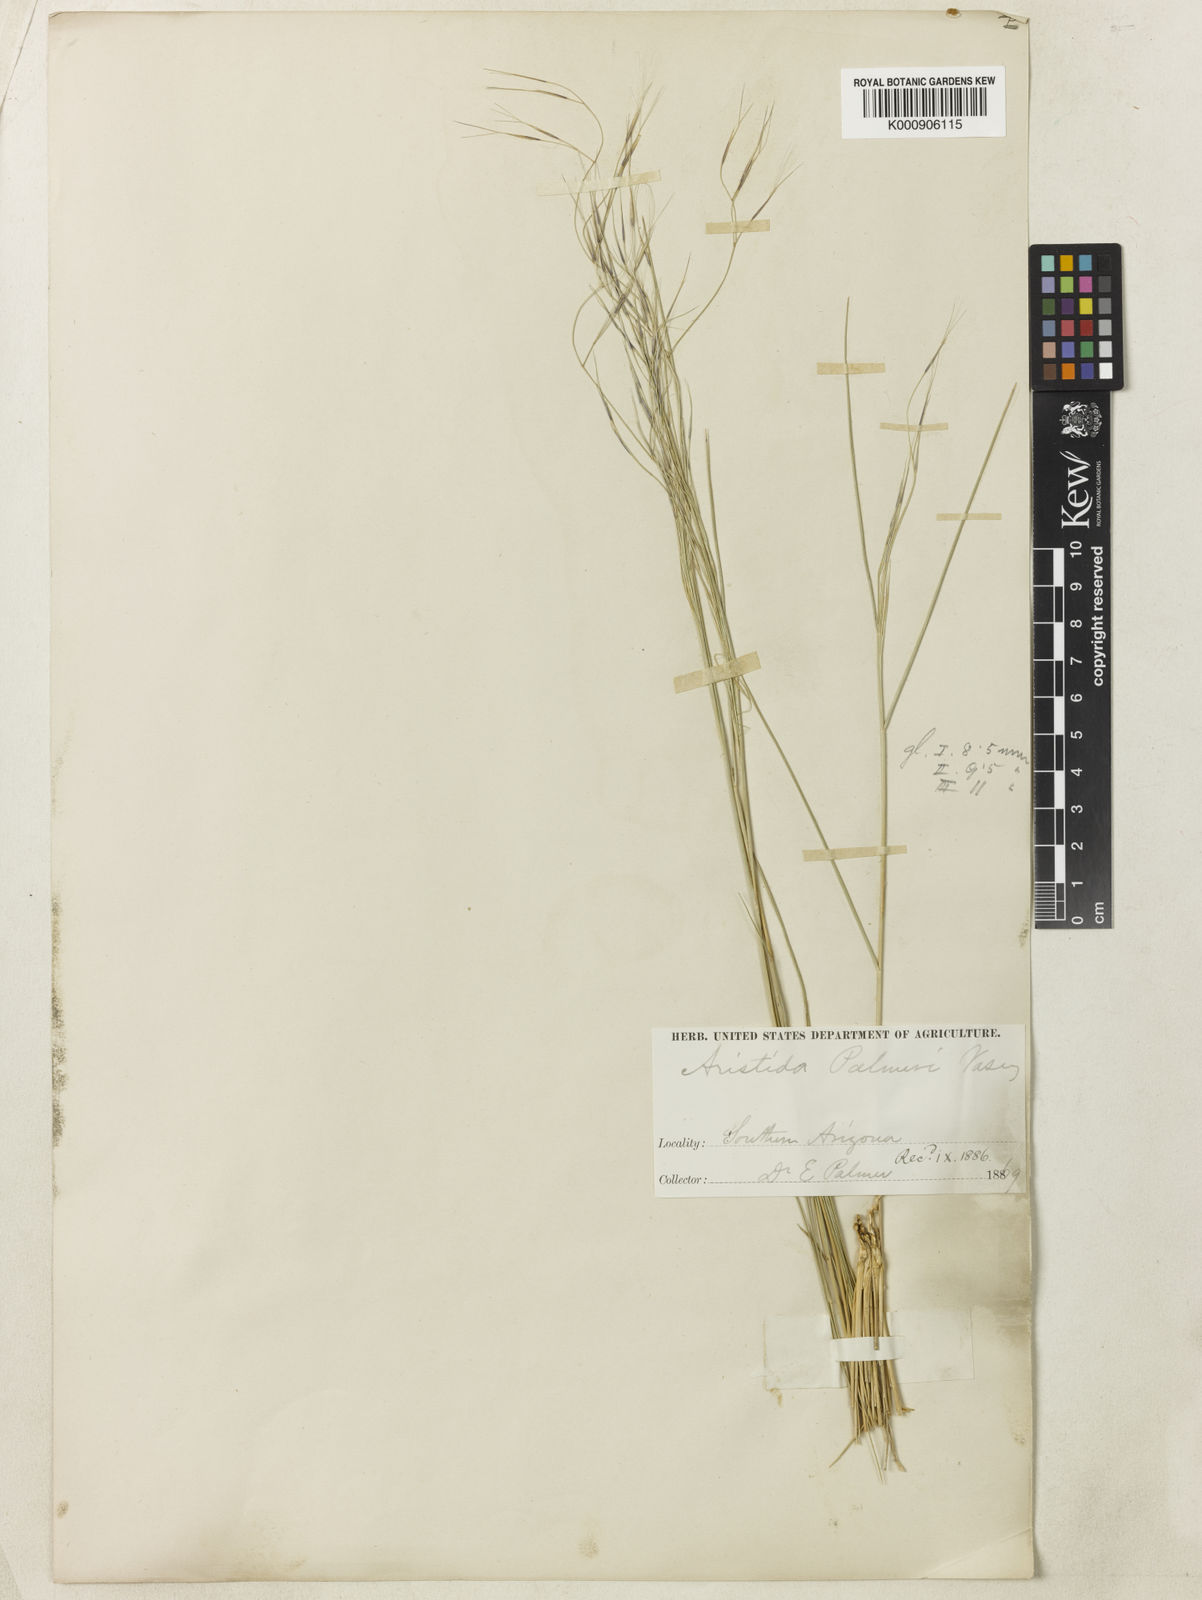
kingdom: Plantae
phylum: Tracheophyta
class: Liliopsida
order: Poales
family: Poaceae
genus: Aristida
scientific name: Aristida divaricata
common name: Poverty grass
